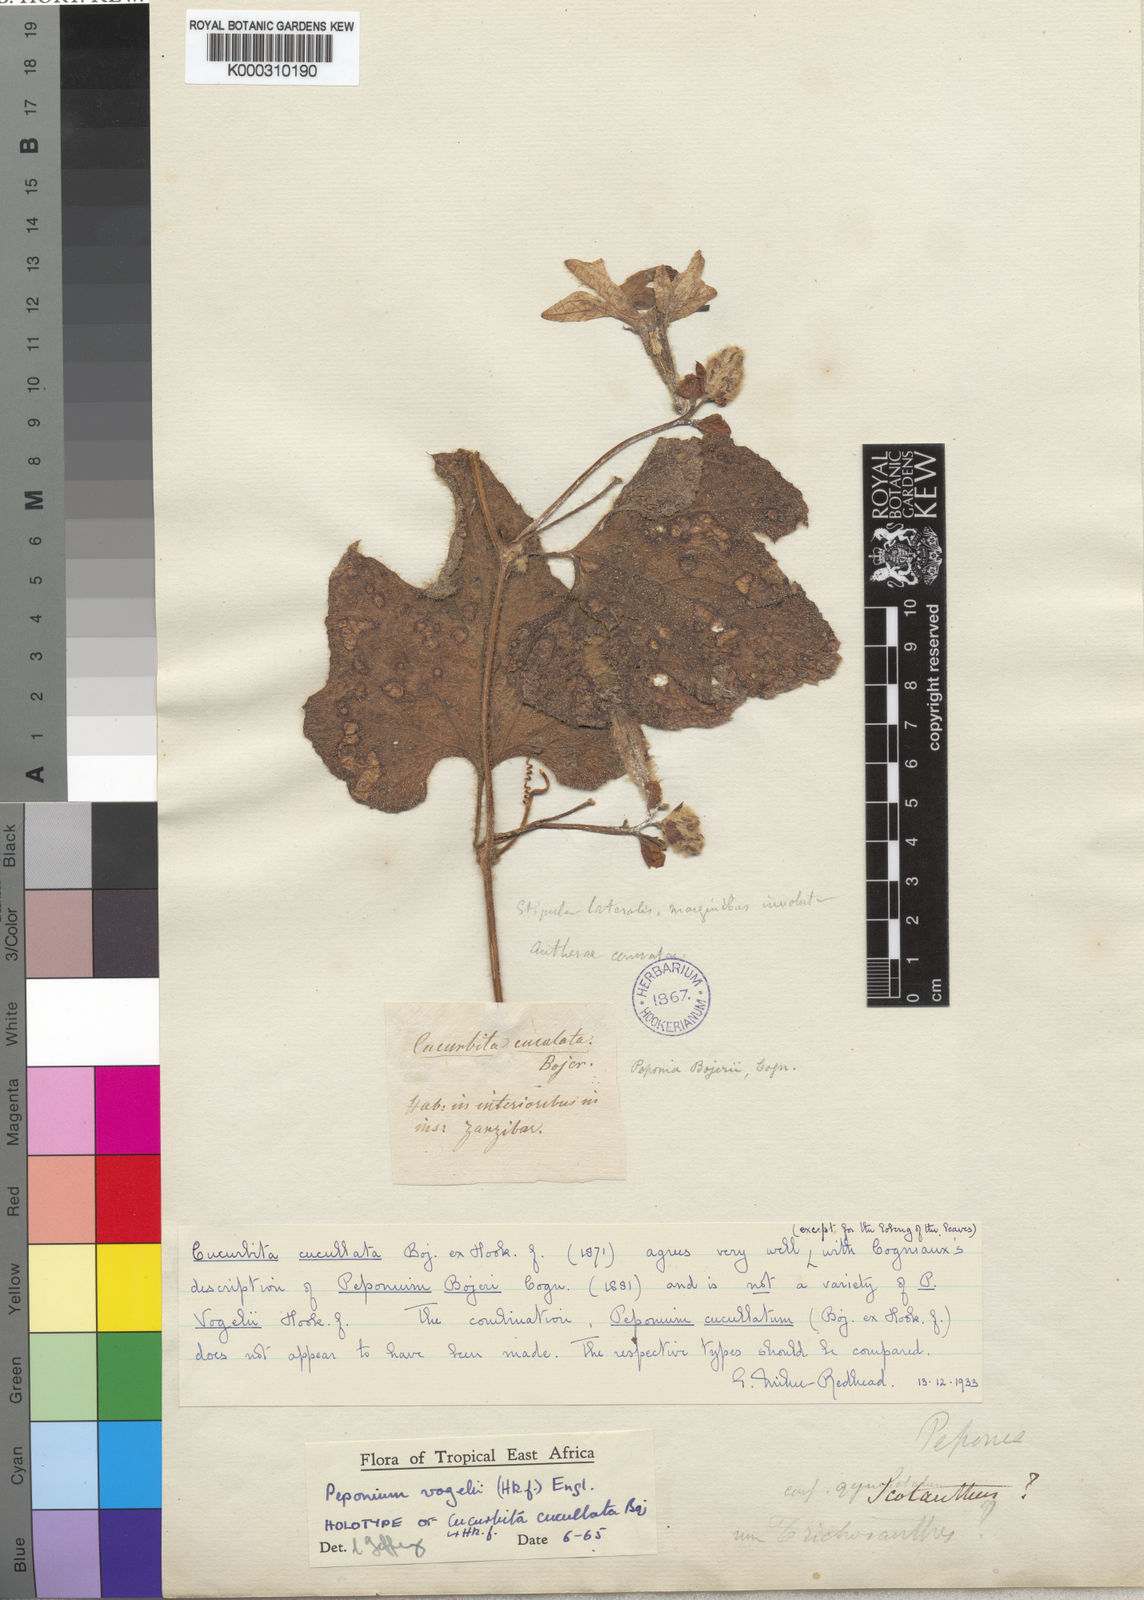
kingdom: Plantae
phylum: Tracheophyta
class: Magnoliopsida
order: Cucurbitales
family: Cucurbitaceae
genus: Peponium
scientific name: Peponium vogelii
